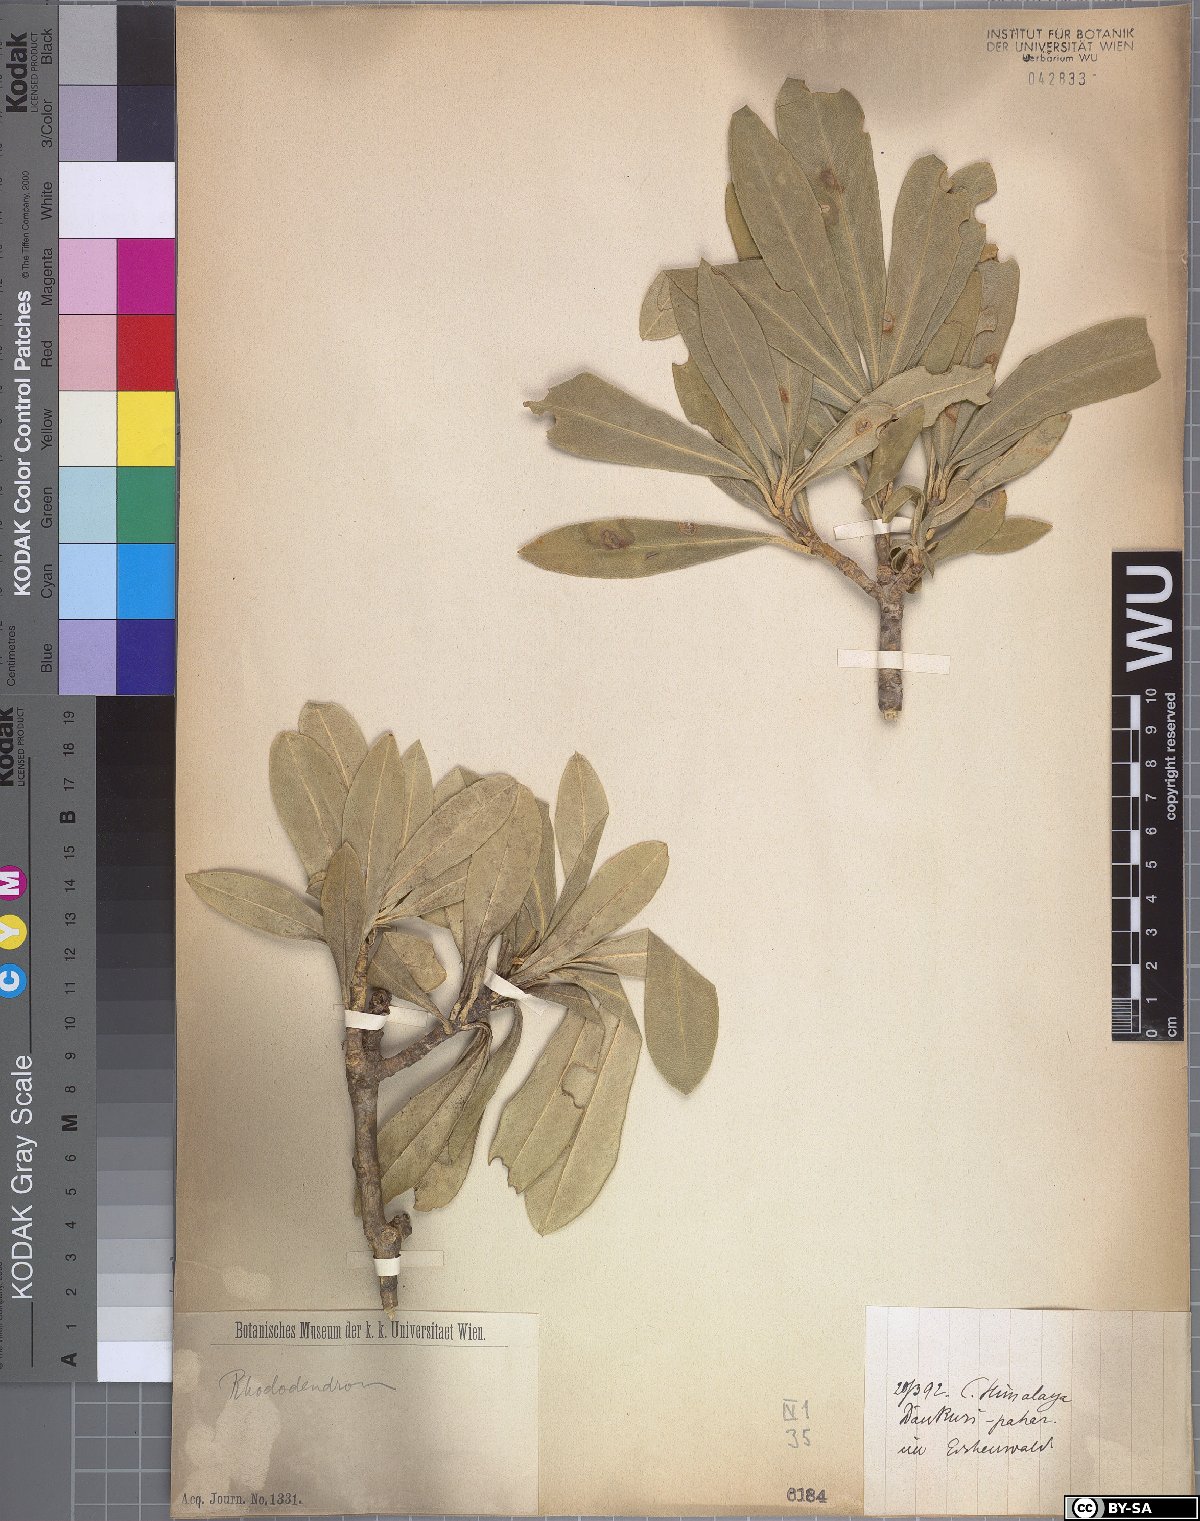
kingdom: Plantae
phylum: Tracheophyta
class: Magnoliopsida
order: Ericales
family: Ericaceae
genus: Rhododendron
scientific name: Rhododendron
